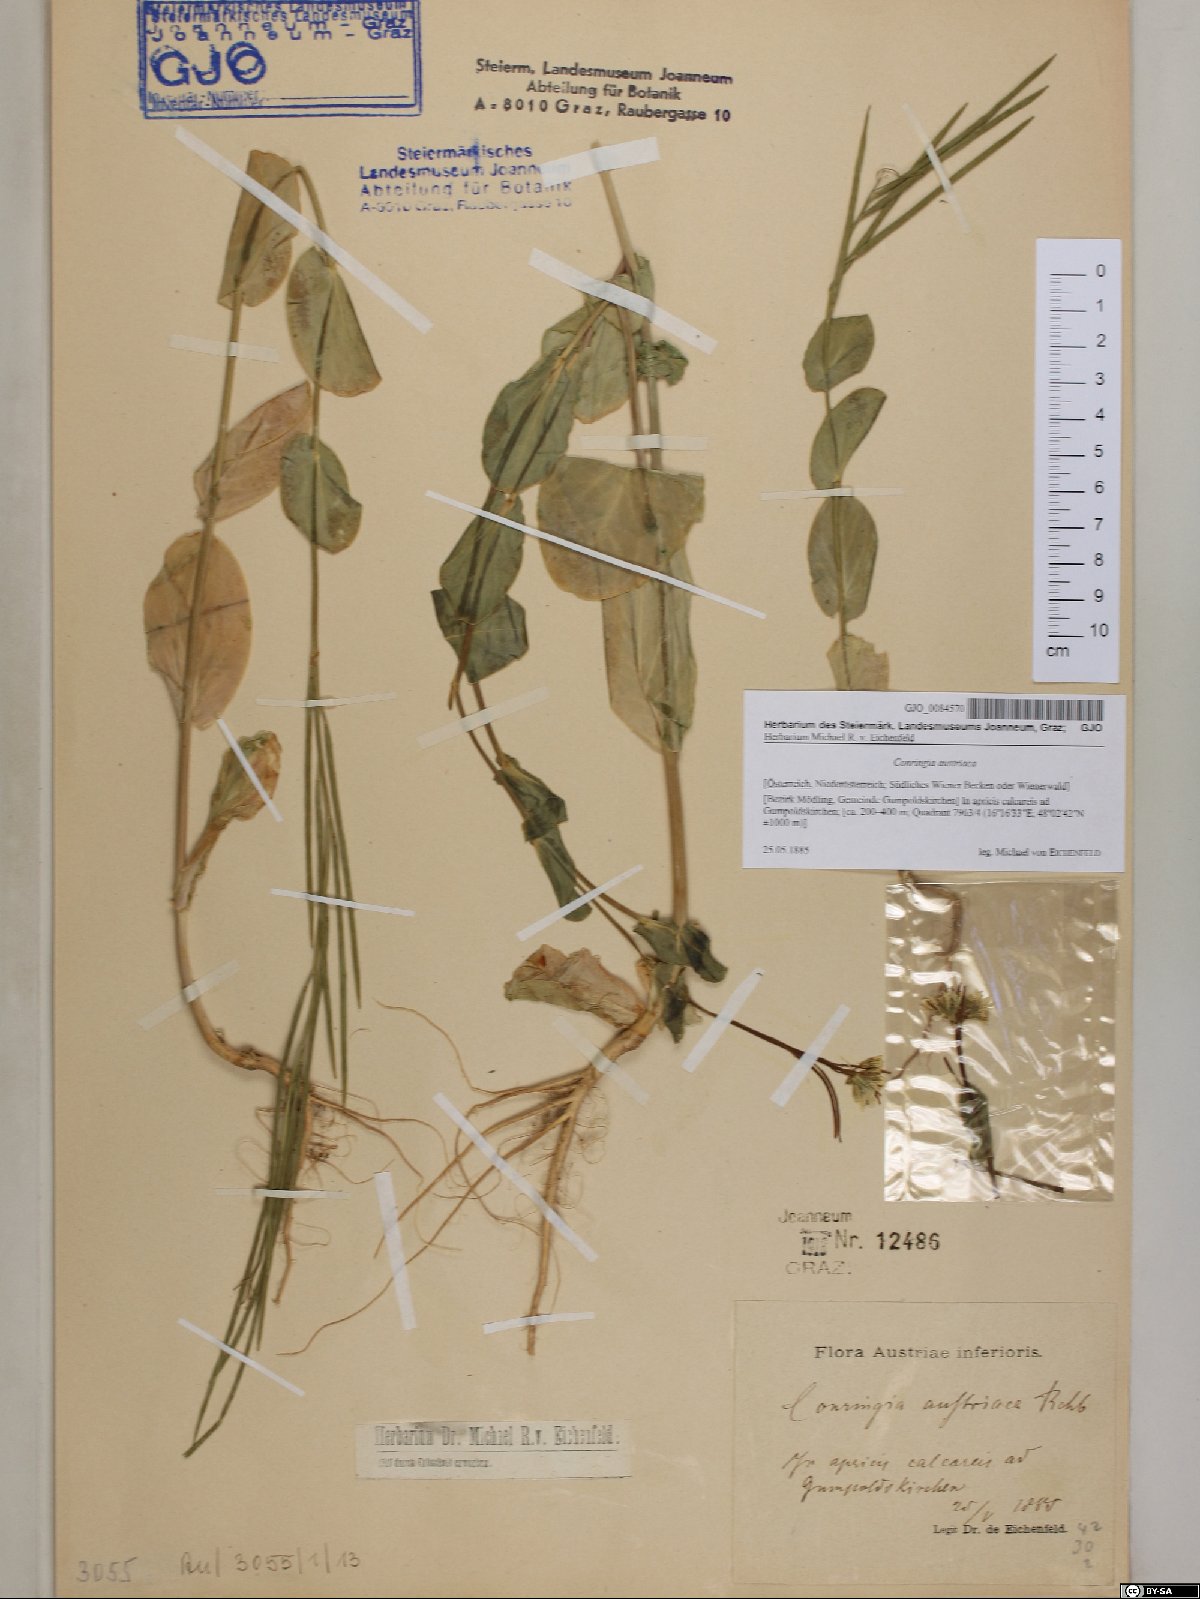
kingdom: Plantae
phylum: Tracheophyta
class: Magnoliopsida
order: Brassicales
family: Brassicaceae
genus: Conringia
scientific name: Conringia austriaca
